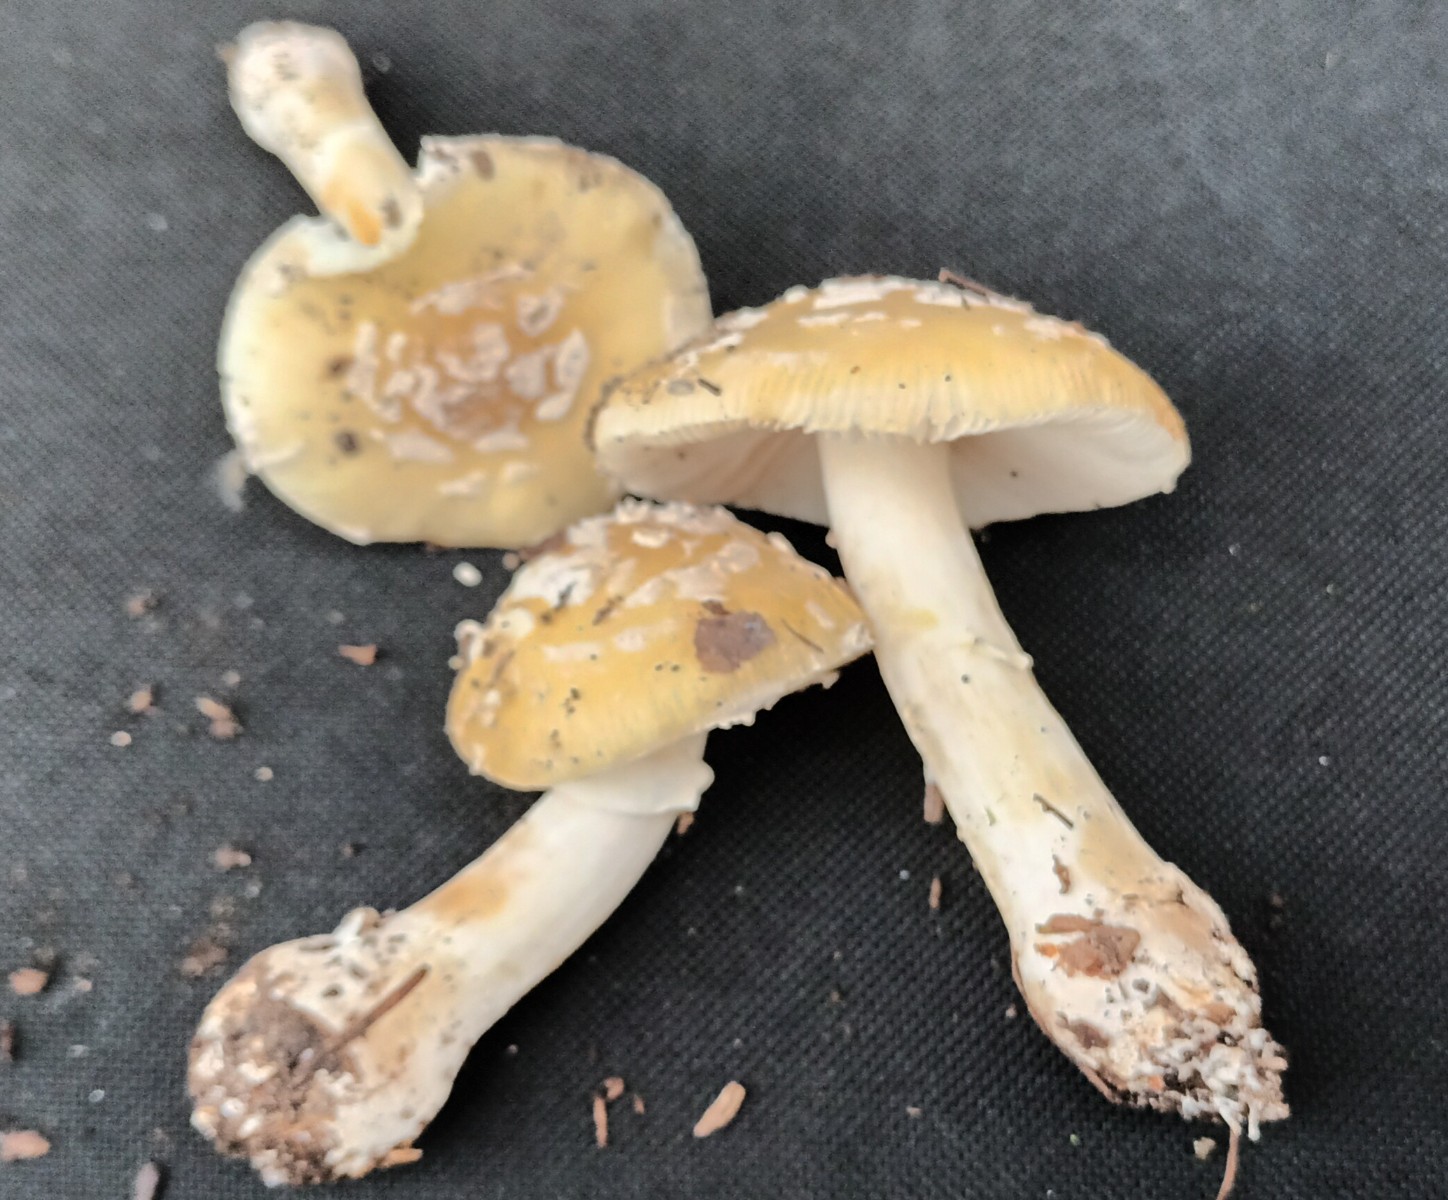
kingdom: Fungi
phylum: Basidiomycota
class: Agaricomycetes
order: Agaricales
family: Amanitaceae
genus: Amanita
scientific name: Amanita gemmata
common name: okkergul fluesvamp
